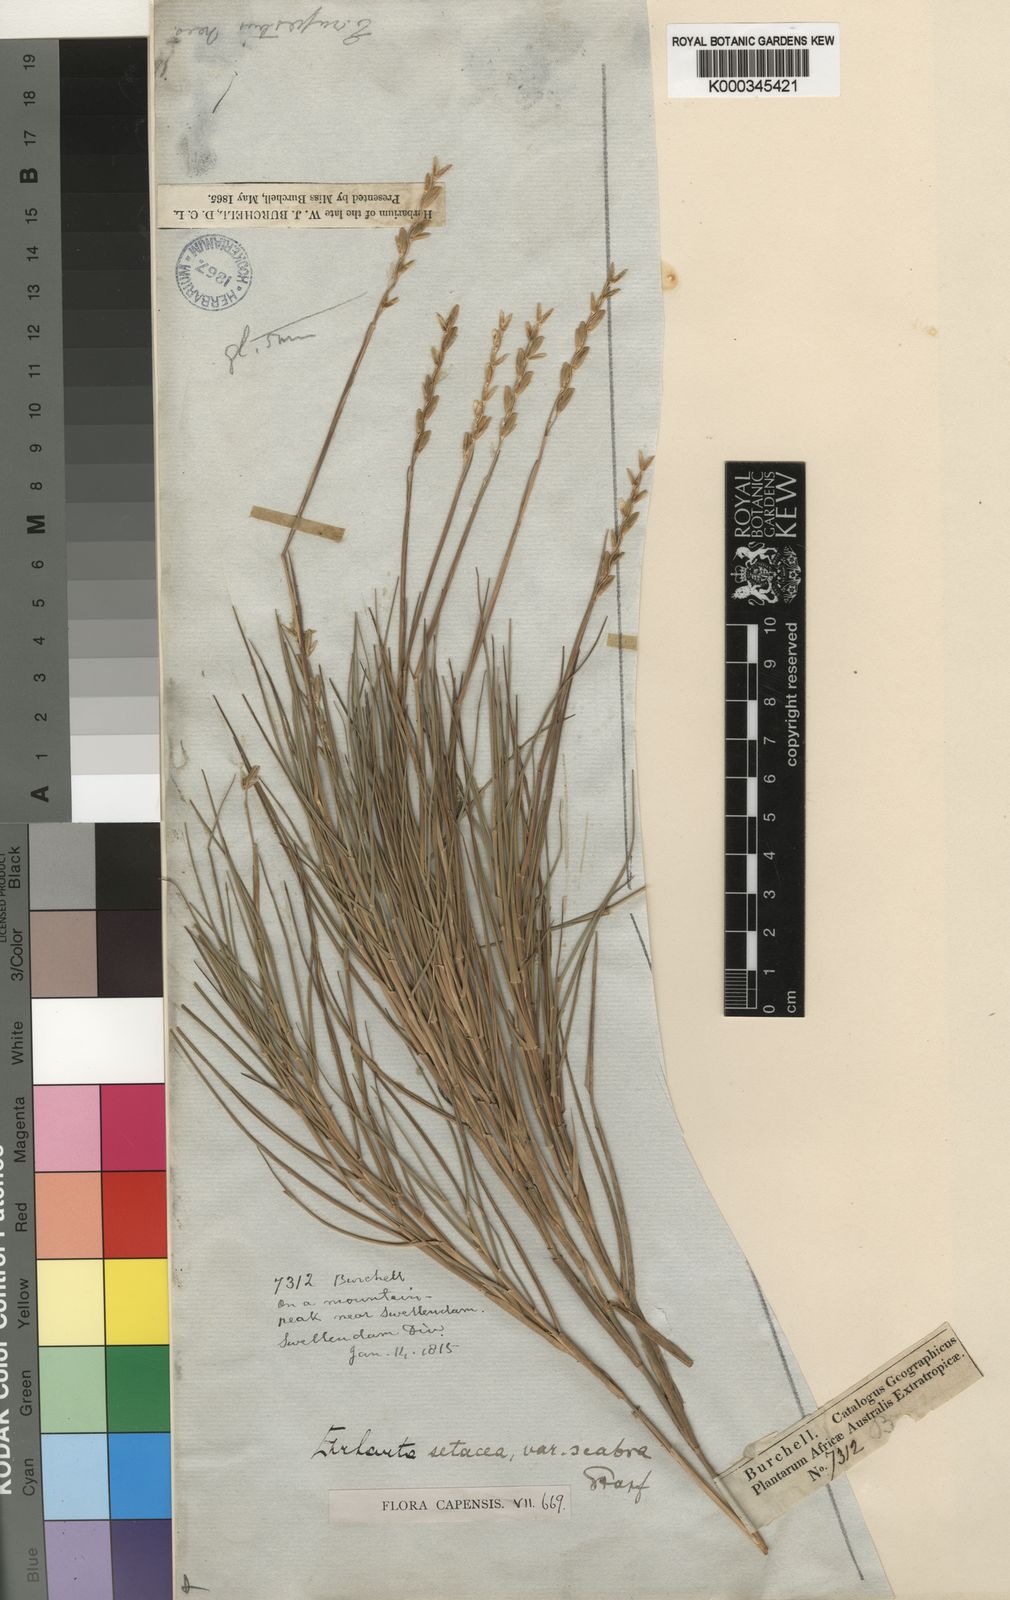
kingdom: Plantae
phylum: Tracheophyta
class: Liliopsida
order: Poales
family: Poaceae
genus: Ehrharta
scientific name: Ehrharta setacea
